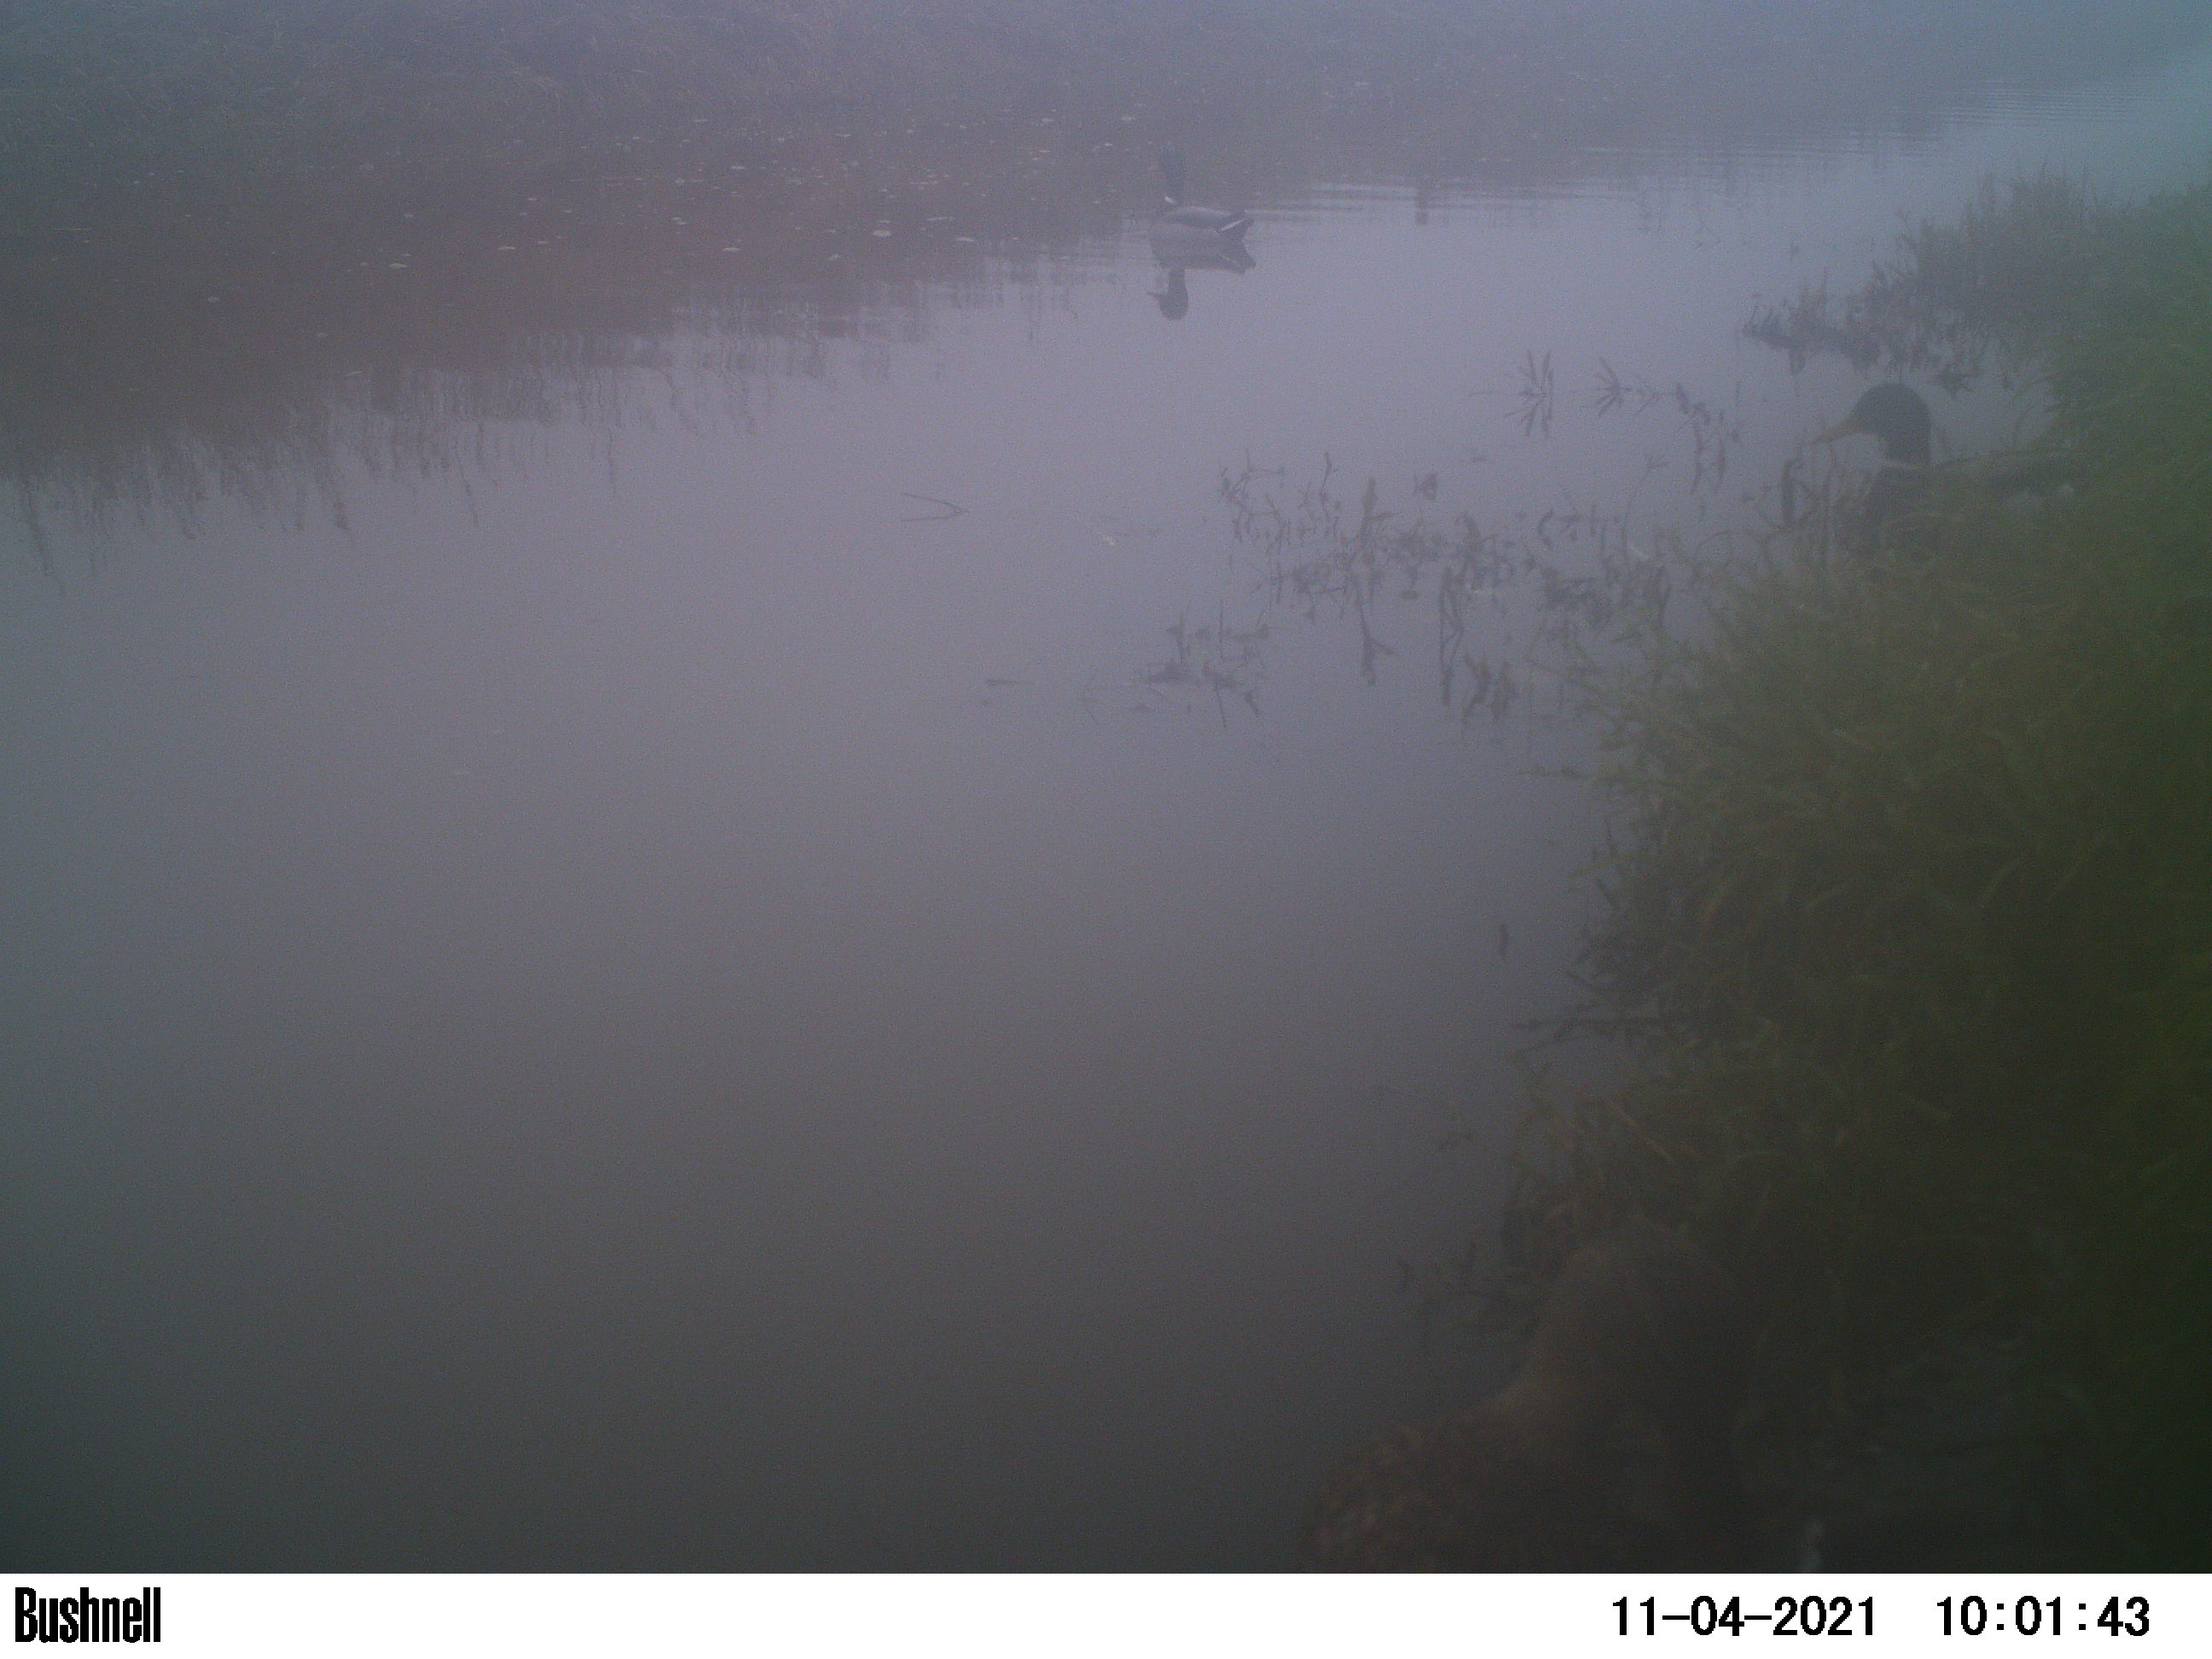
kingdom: Animalia
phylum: Chordata
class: Aves
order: Anseriformes
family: Anatidae
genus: Anas
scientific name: Anas platyrhynchos
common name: Mallard
